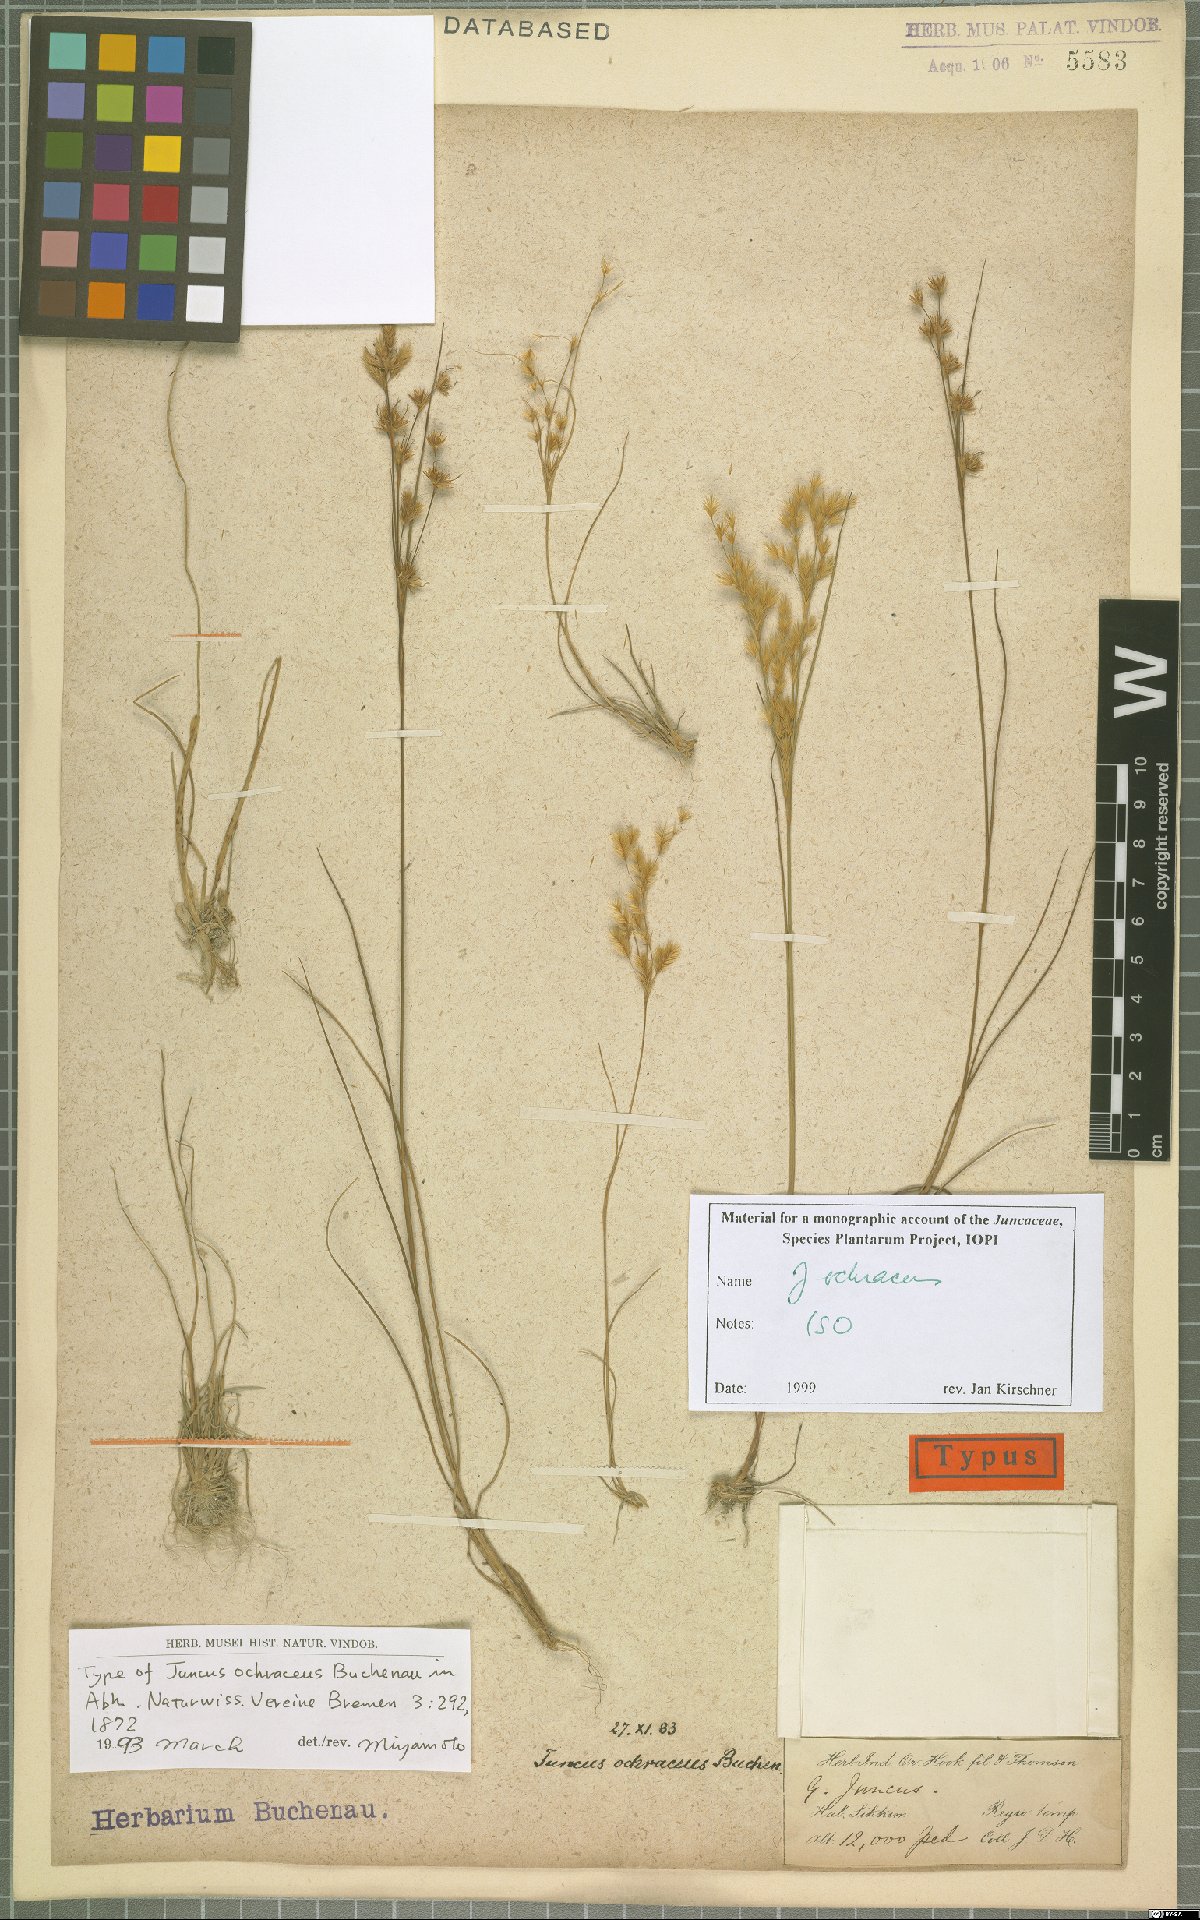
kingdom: Plantae
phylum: Tracheophyta
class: Liliopsida
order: Poales
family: Juncaceae
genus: Juncus
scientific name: Juncus ochraceus
